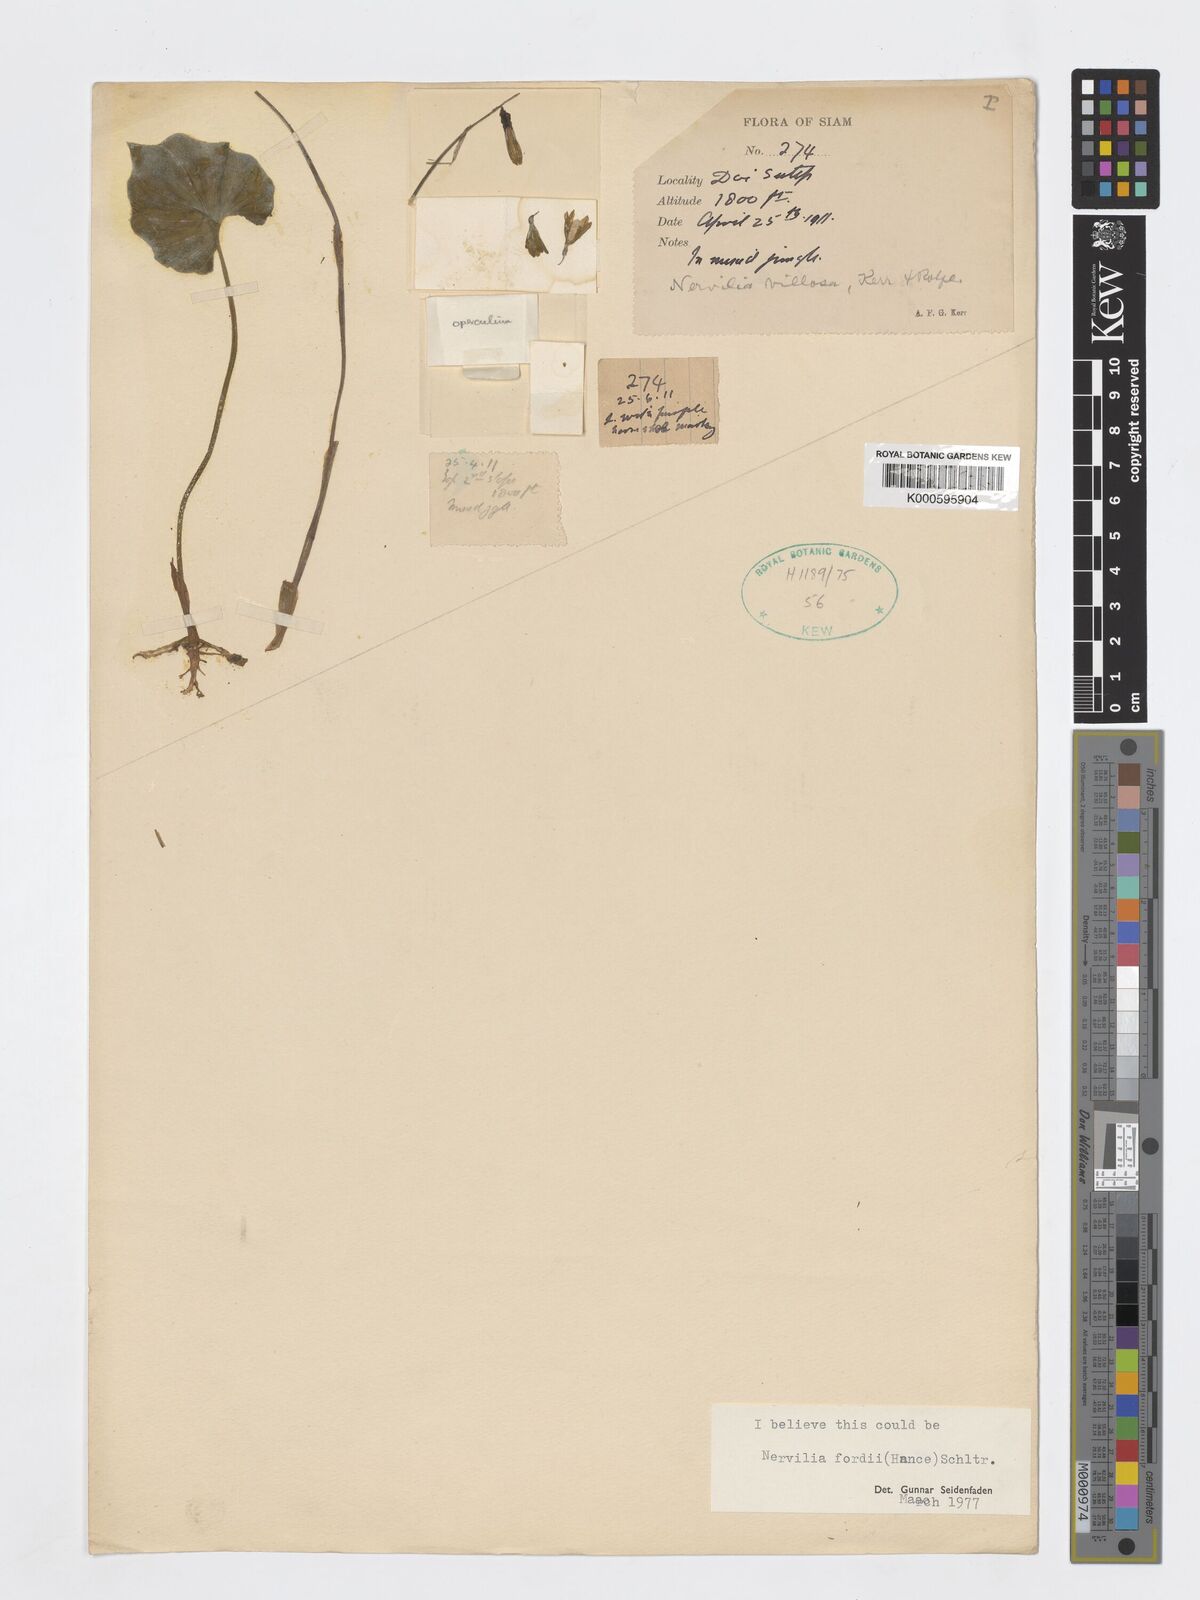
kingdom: Plantae
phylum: Tracheophyta
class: Liliopsida
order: Asparagales
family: Orchidaceae
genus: Nervilia
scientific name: Nervilia fordii
